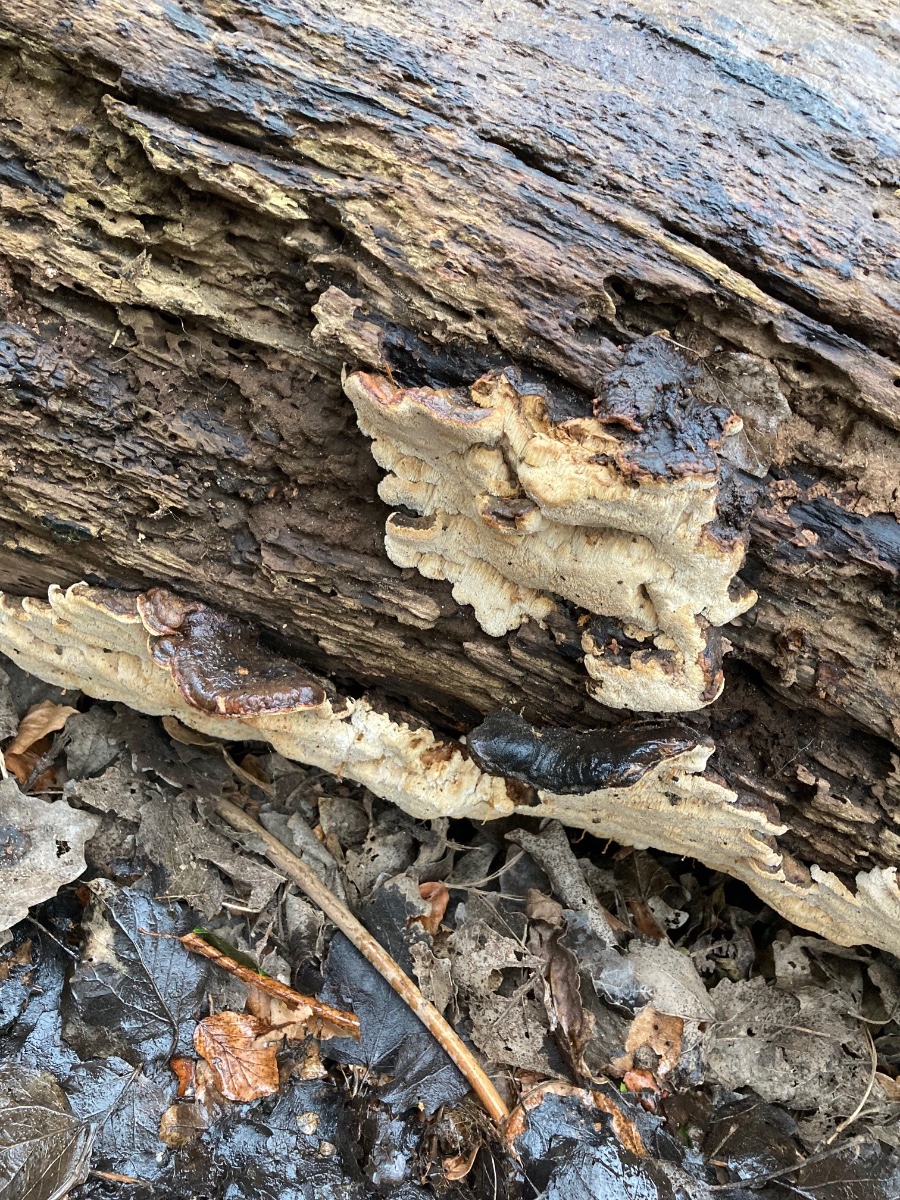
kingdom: Fungi
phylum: Basidiomycota
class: Agaricomycetes
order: Polyporales
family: Ischnodermataceae
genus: Ischnoderma
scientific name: Ischnoderma resinosum
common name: løv-tjæreporesvamp
